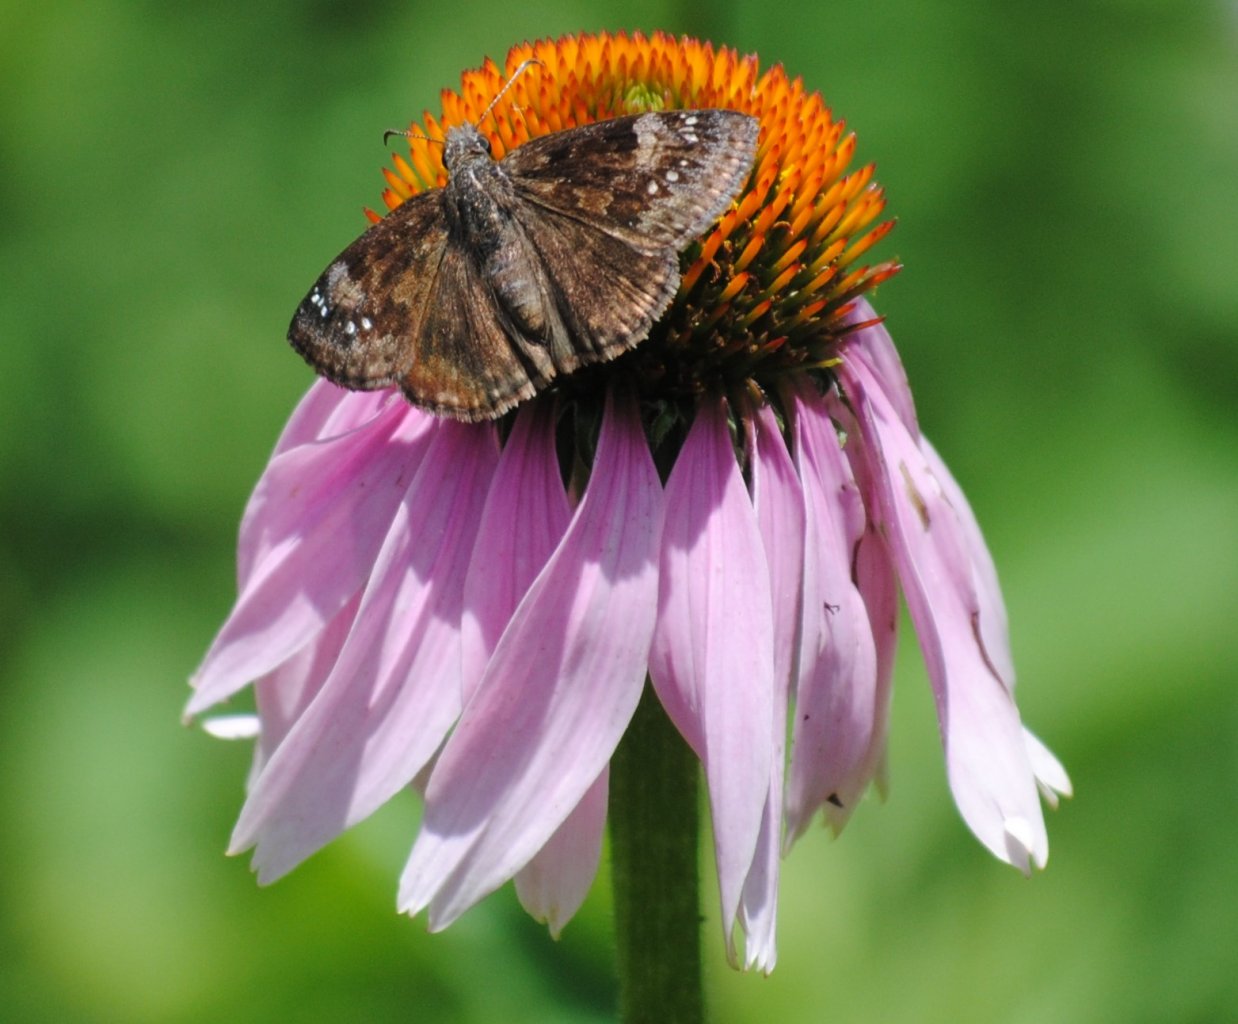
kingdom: Animalia
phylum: Arthropoda
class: Insecta
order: Lepidoptera
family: Hesperiidae
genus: Gesta
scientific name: Gesta
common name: Wild Indigo Duskywing
